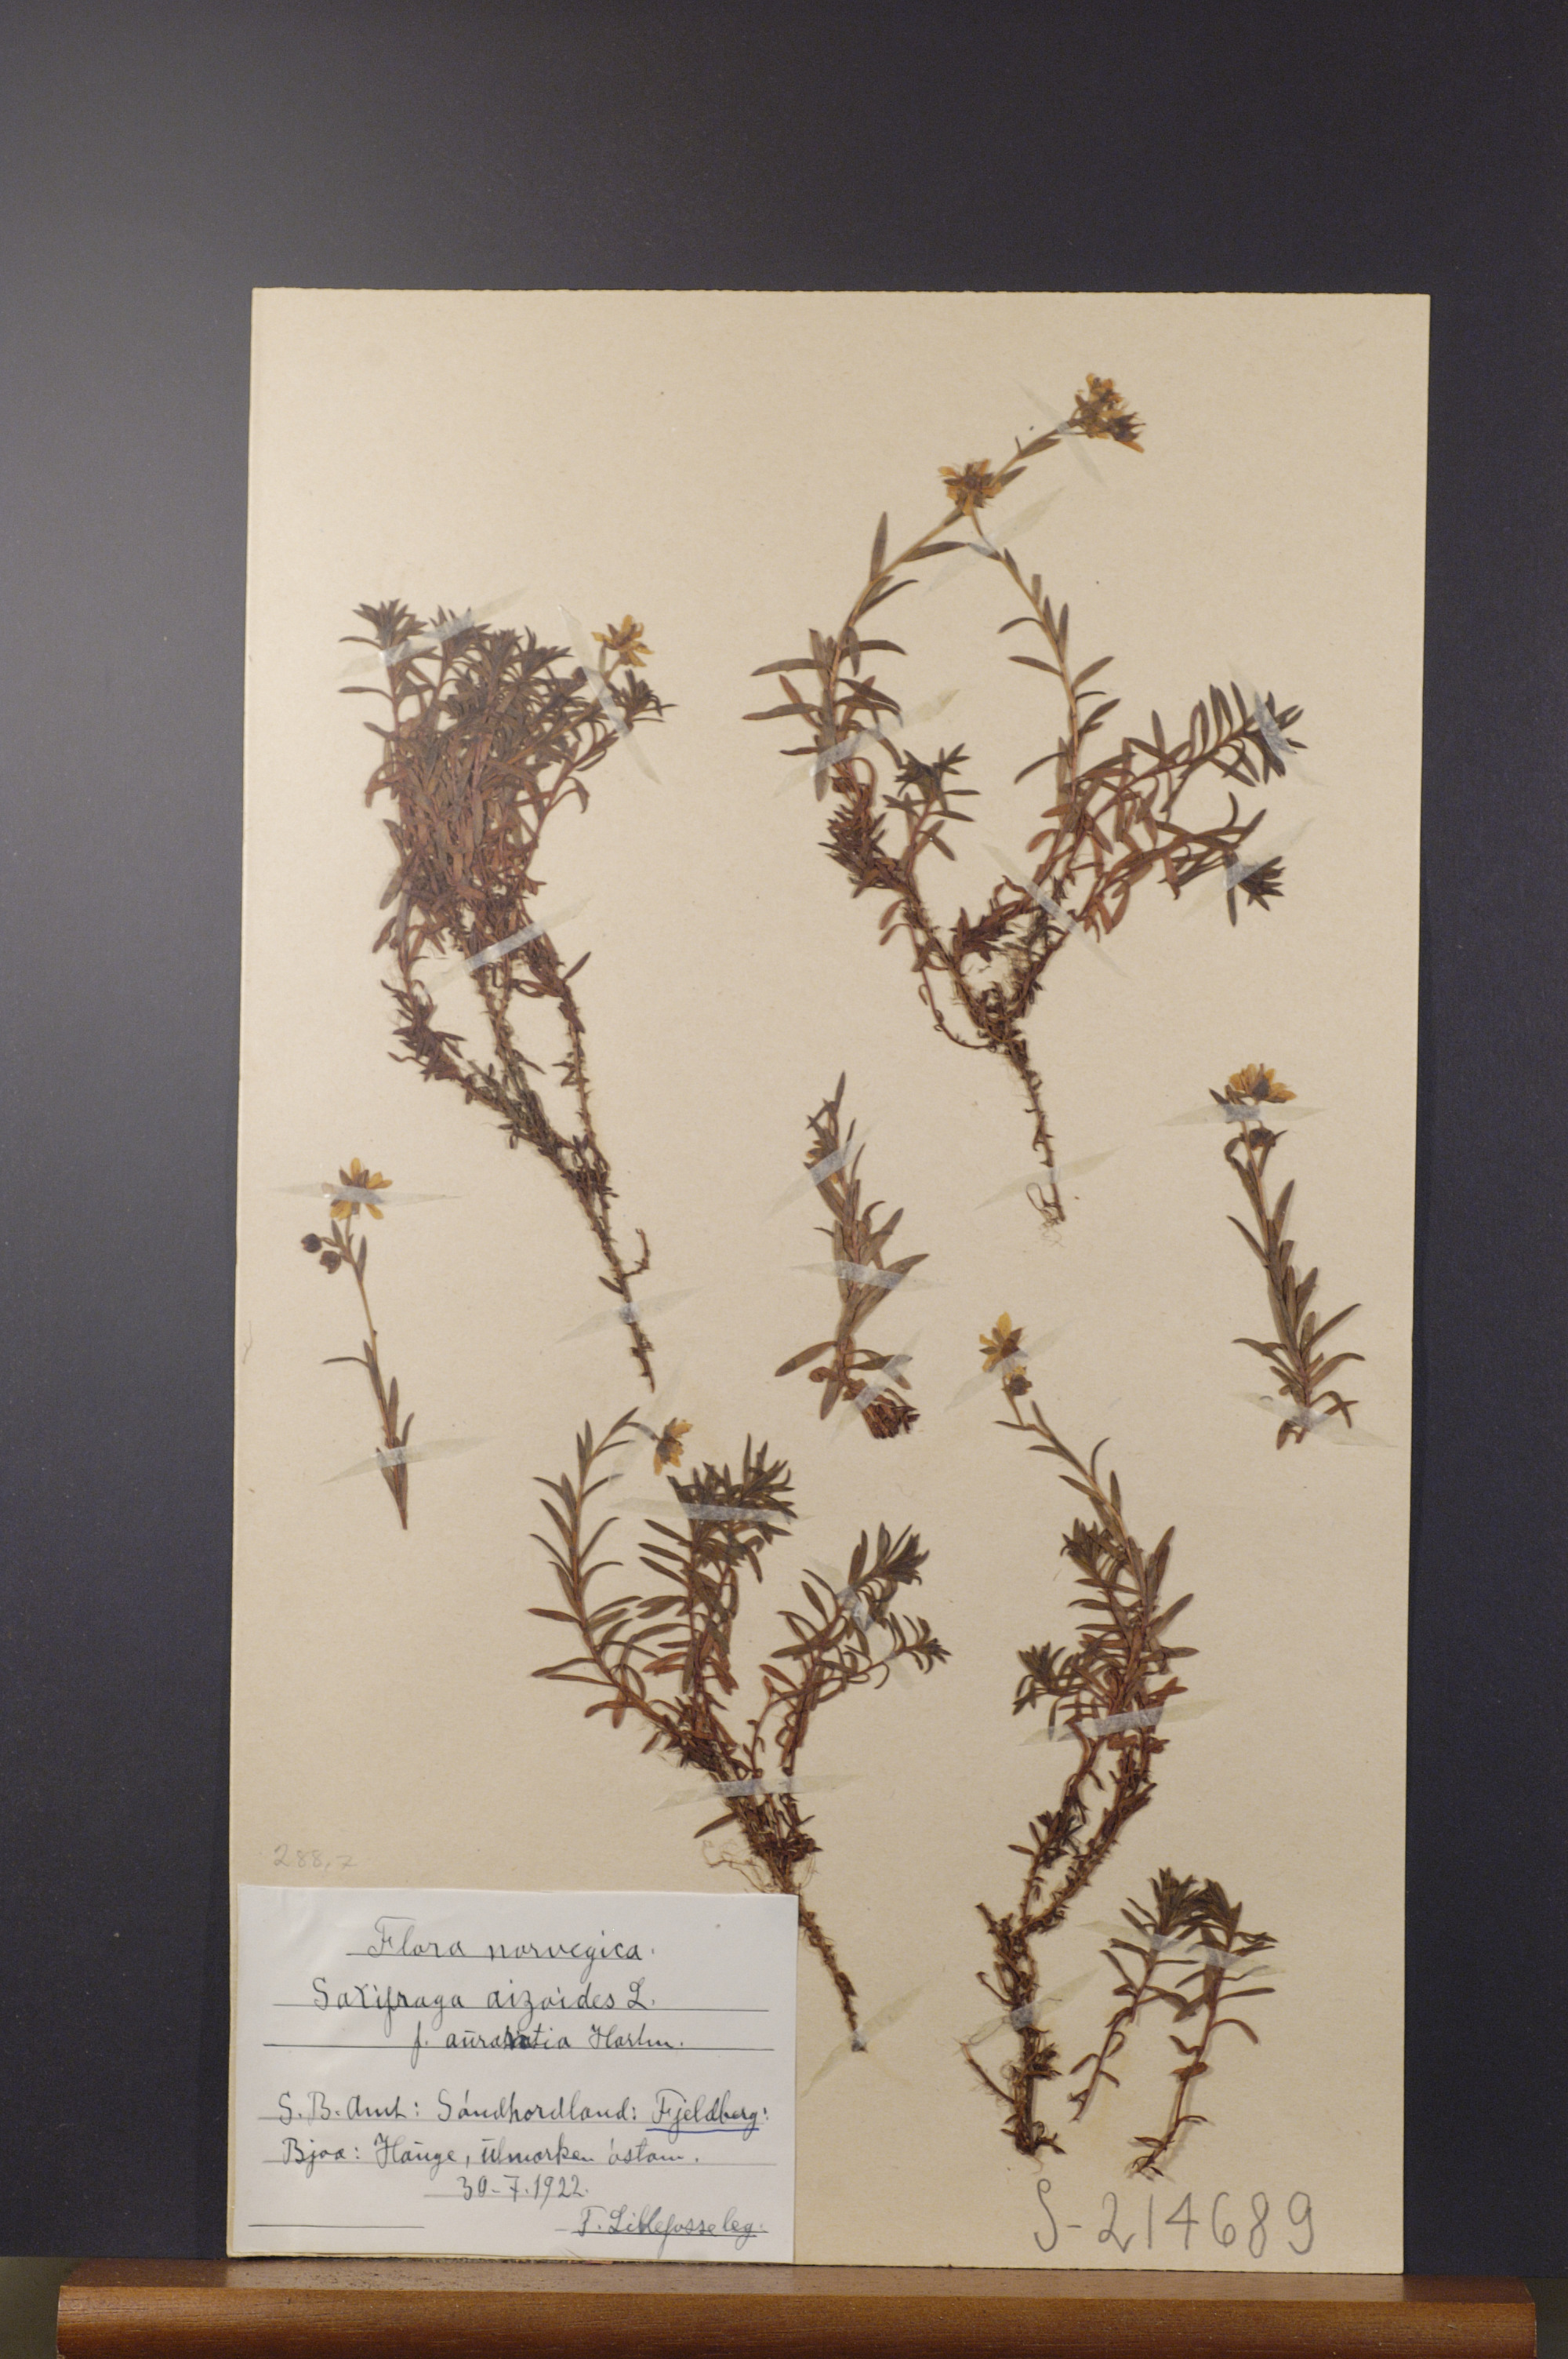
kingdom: Plantae
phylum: Tracheophyta
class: Magnoliopsida
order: Saxifragales
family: Saxifragaceae
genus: Saxifraga
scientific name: Saxifraga aizoides
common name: Yellow mountain saxifrage
